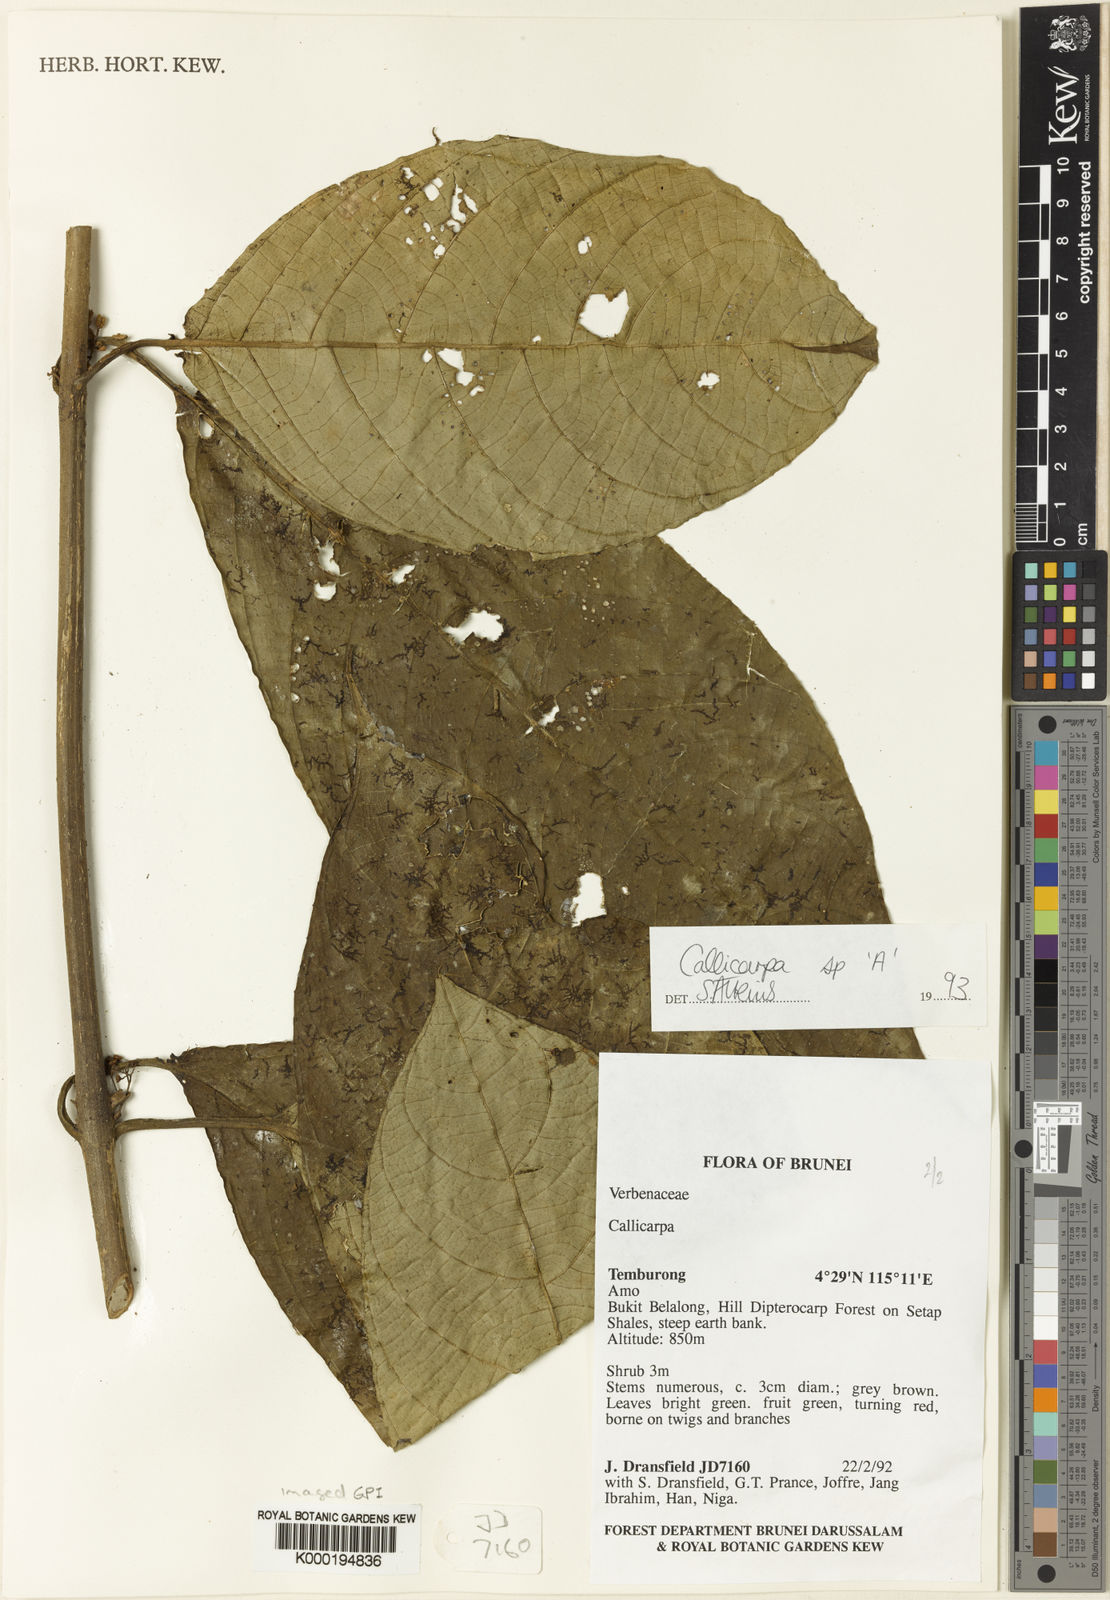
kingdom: Plantae
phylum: Tracheophyta
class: Magnoliopsida
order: Lamiales
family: Lamiaceae
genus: Callicarpa
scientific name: Callicarpa glabrifolia
